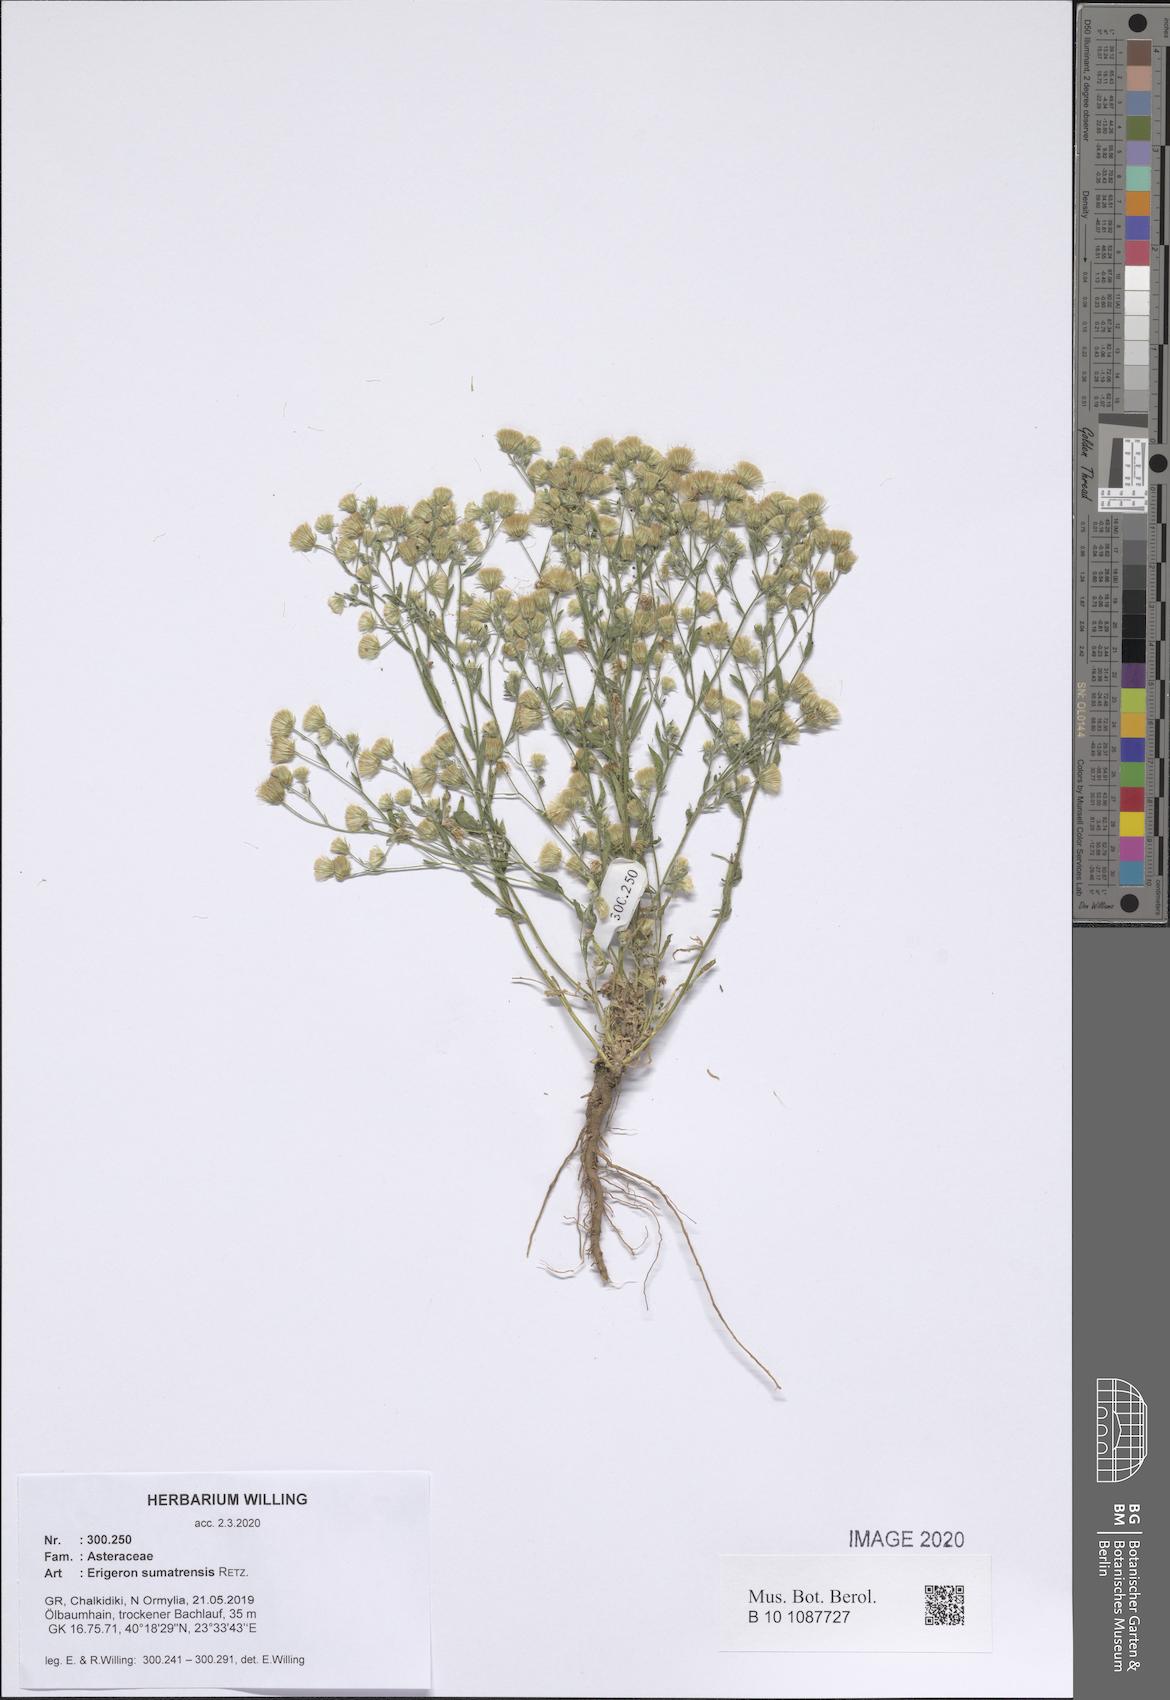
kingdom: Plantae
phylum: Tracheophyta
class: Magnoliopsida
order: Asterales
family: Asteraceae
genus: Erigeron
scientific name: Erigeron sumatrensis
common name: Daisy
